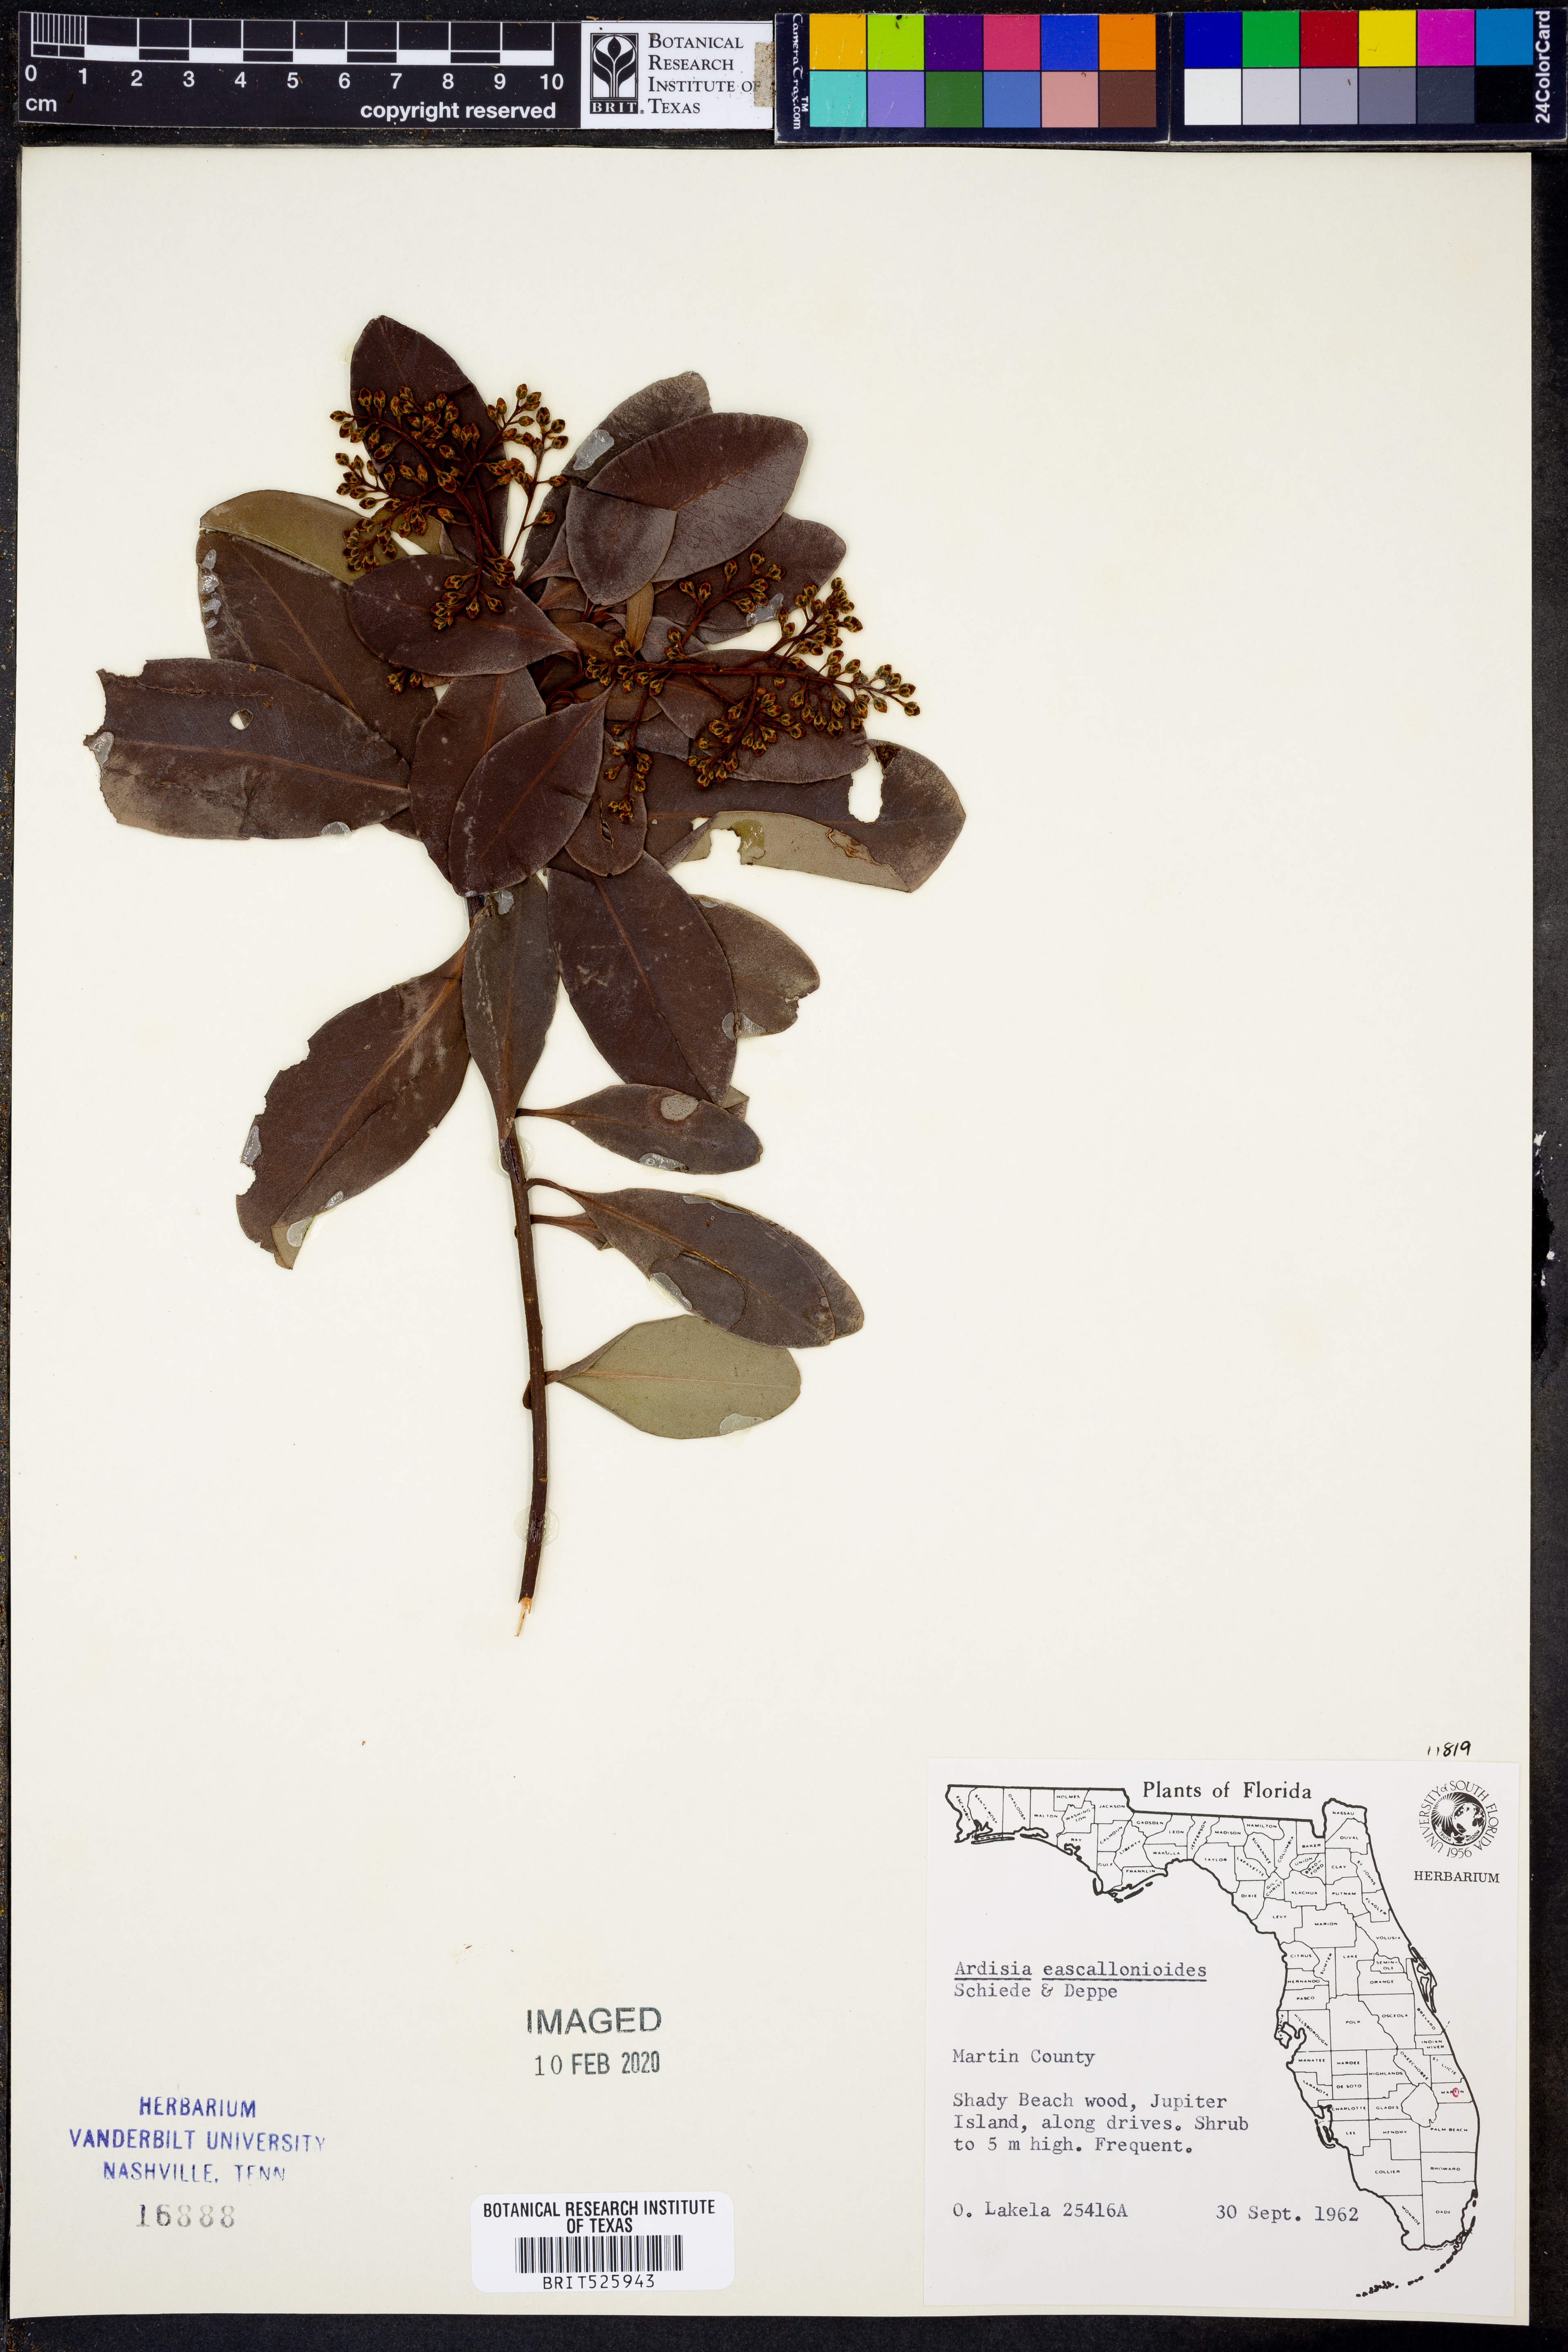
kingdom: Plantae
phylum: Tracheophyta
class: Magnoliopsida
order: Ericales
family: Primulaceae
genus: Ardisia
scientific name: Ardisia escallonioides
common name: Island marlberry
